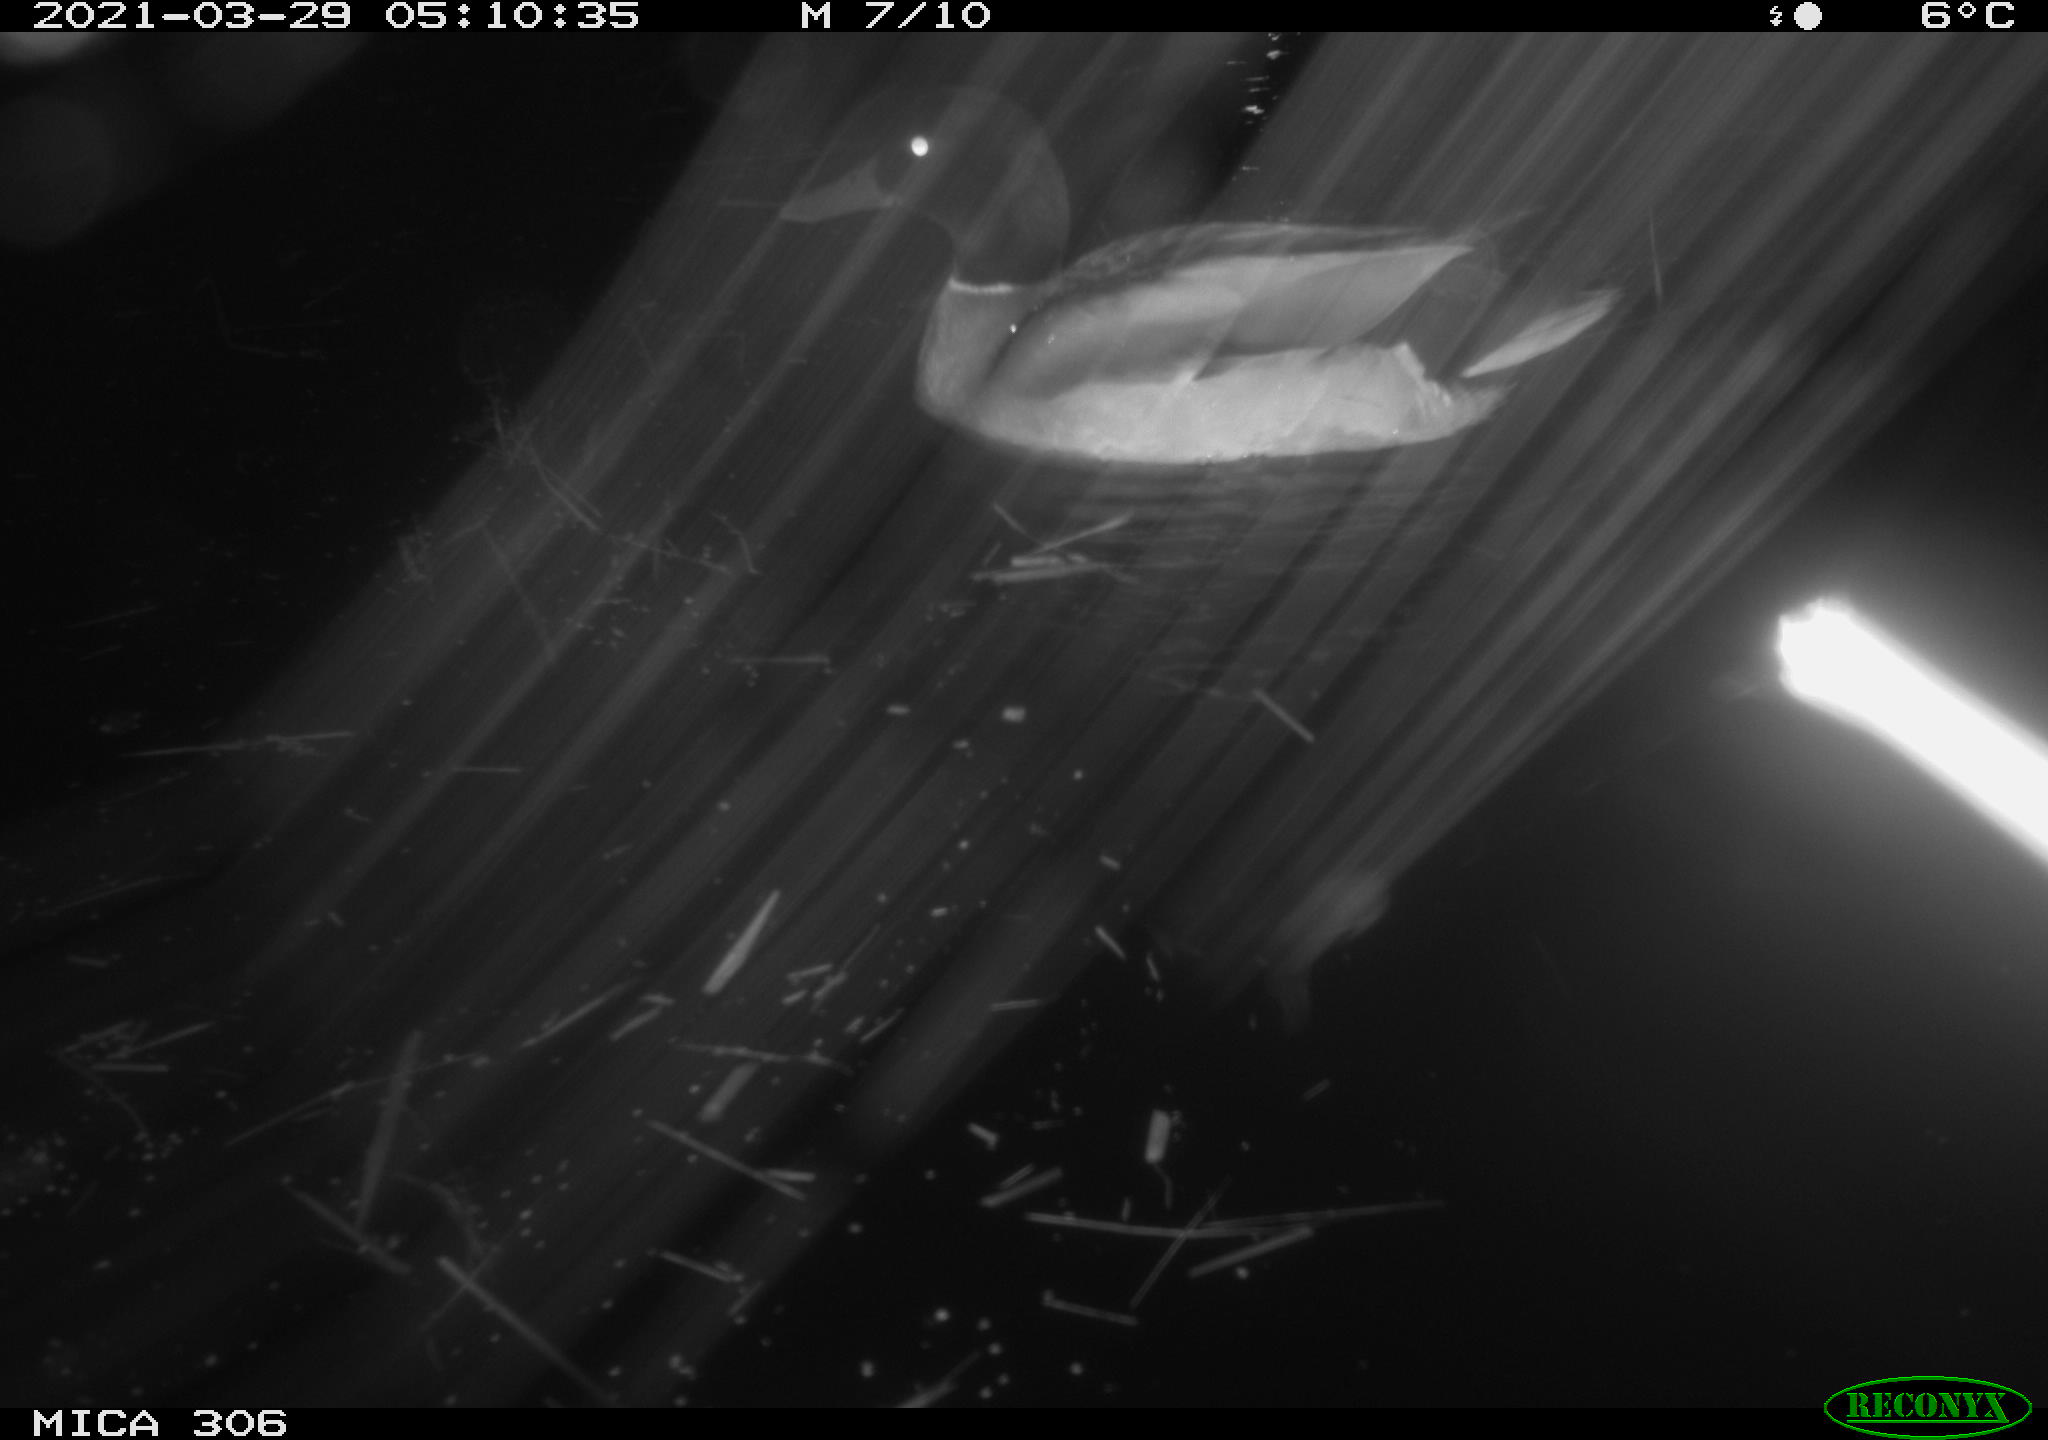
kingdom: Animalia
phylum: Chordata
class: Aves
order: Anseriformes
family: Anatidae
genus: Anas
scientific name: Anas platyrhynchos
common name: Mallard
